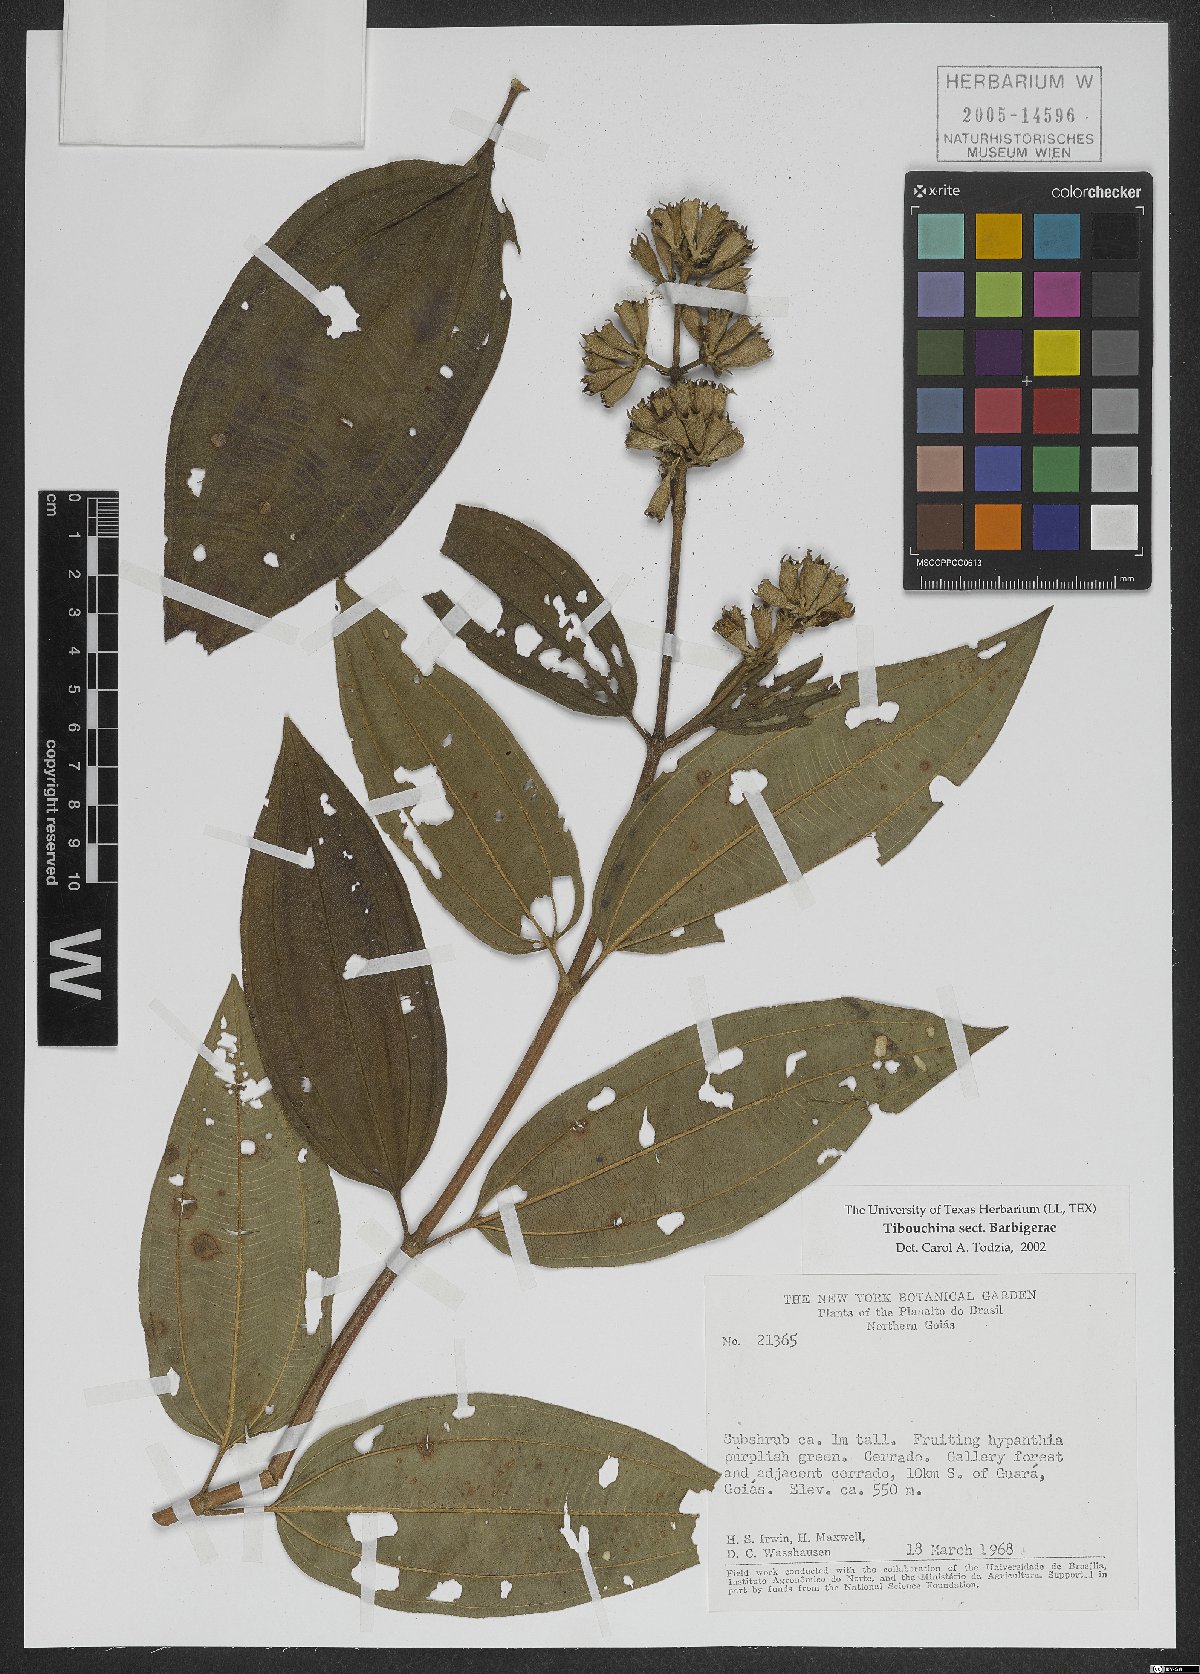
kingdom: Plantae
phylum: Tracheophyta
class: Magnoliopsida
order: Myrtales
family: Melastomataceae
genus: Tibouchina
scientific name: Tibouchina
